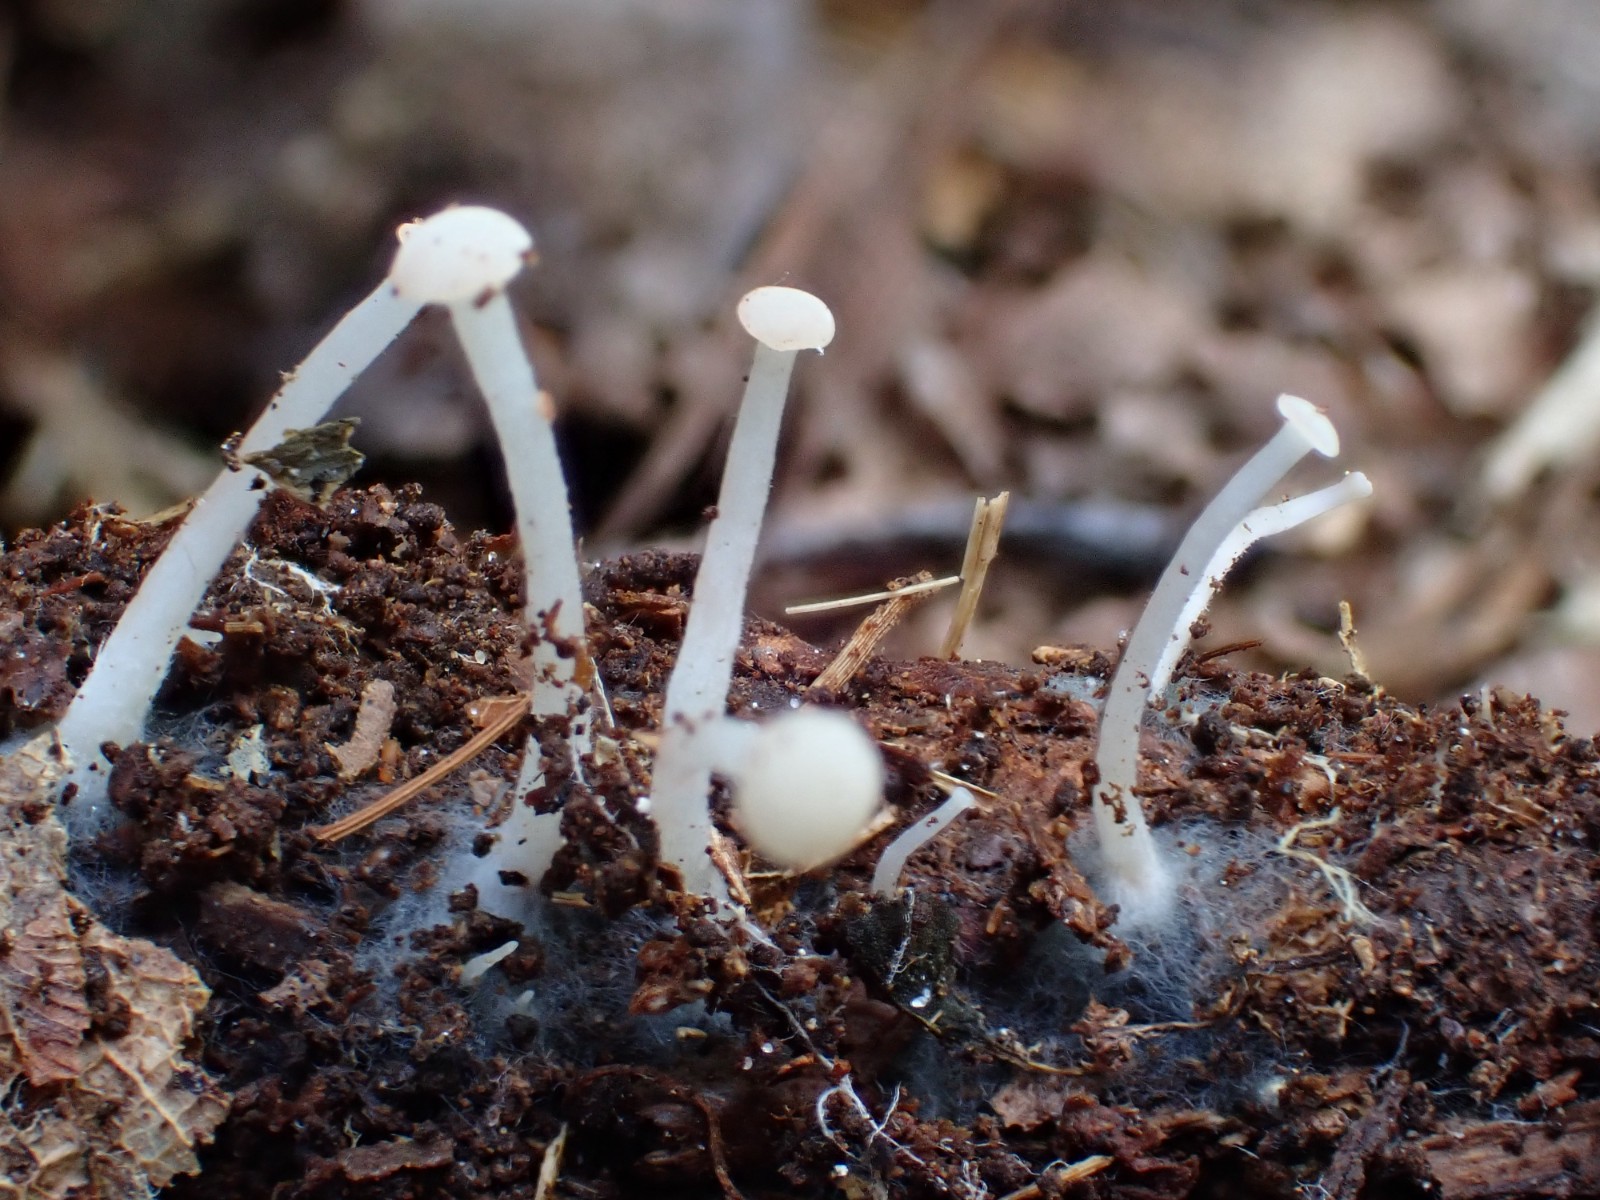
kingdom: Fungi
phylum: Ascomycota
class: Leotiomycetes
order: Helotiales
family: Tricladiaceae
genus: Cudoniella
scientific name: Cudoniella acicularis
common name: ege-dyndskive
